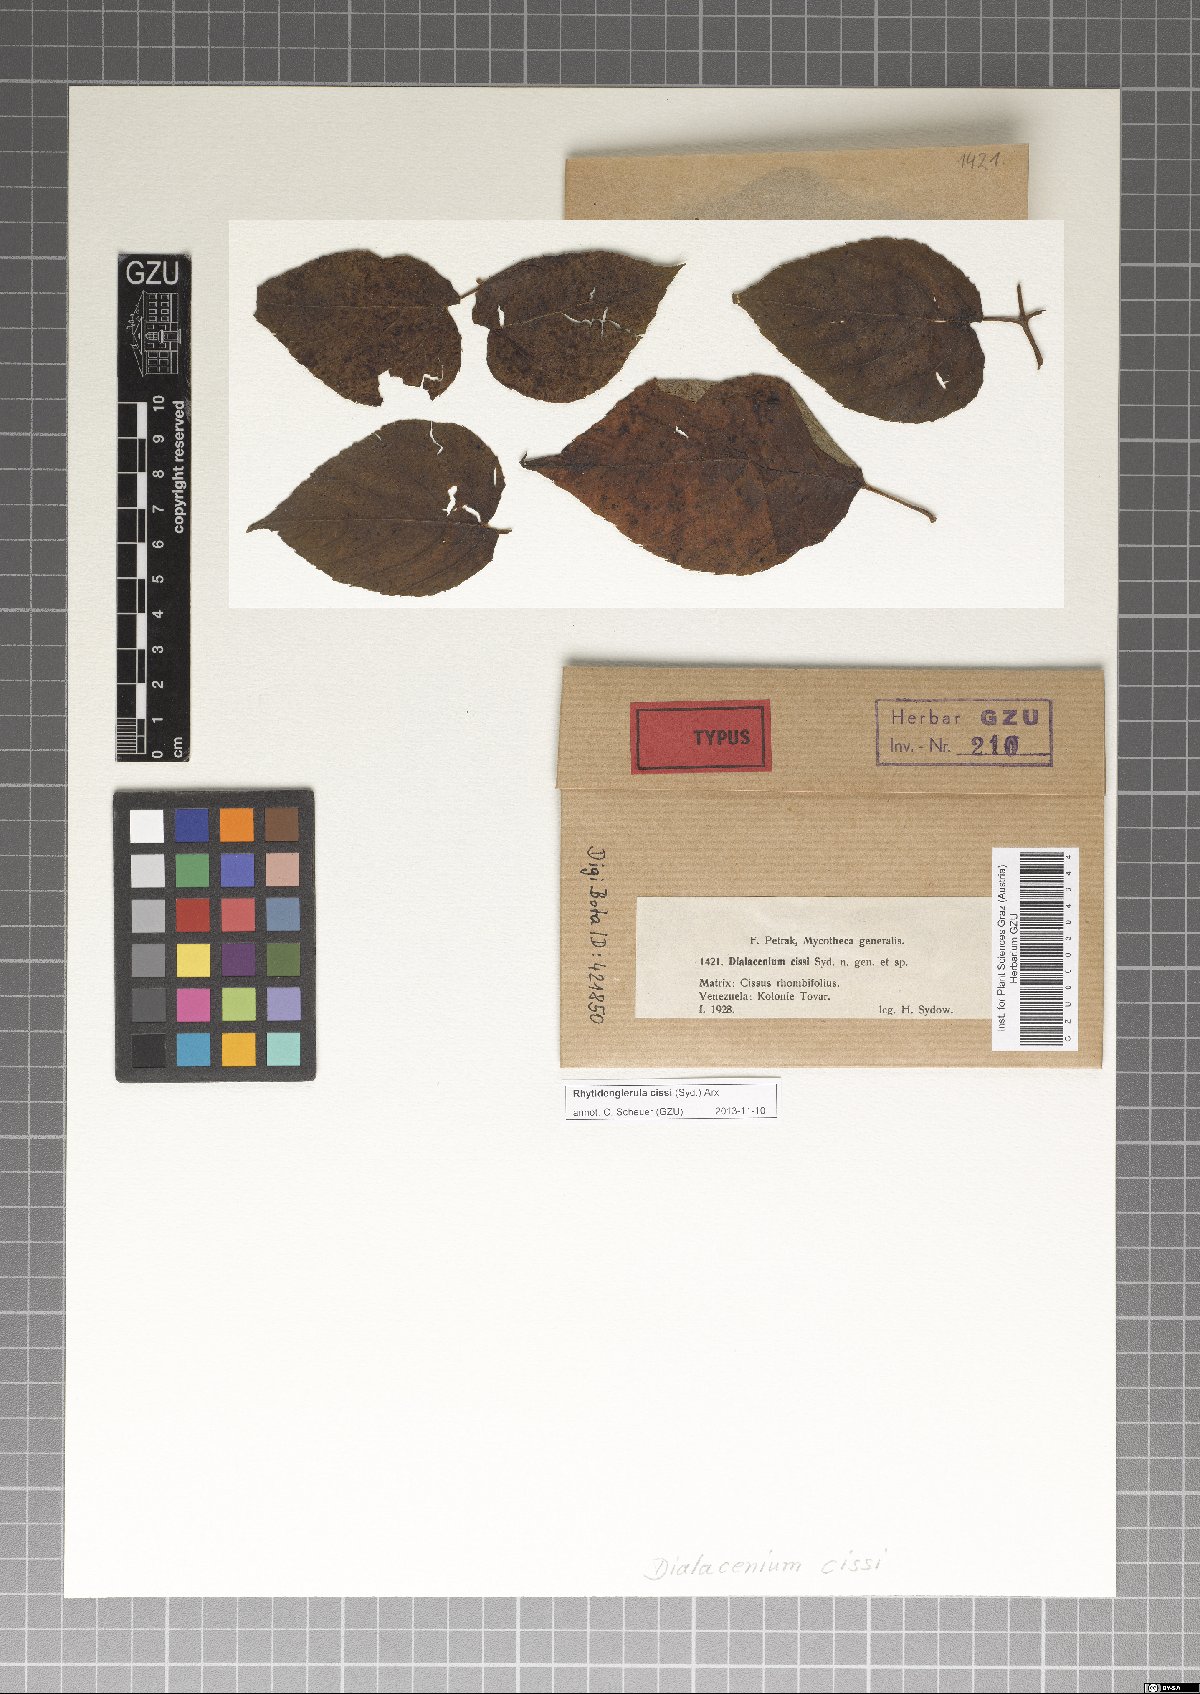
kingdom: Fungi
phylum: Ascomycota
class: Dothideomycetes
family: Englerulaceae
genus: Rhytidenglerula
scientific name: Rhytidenglerula cissi
